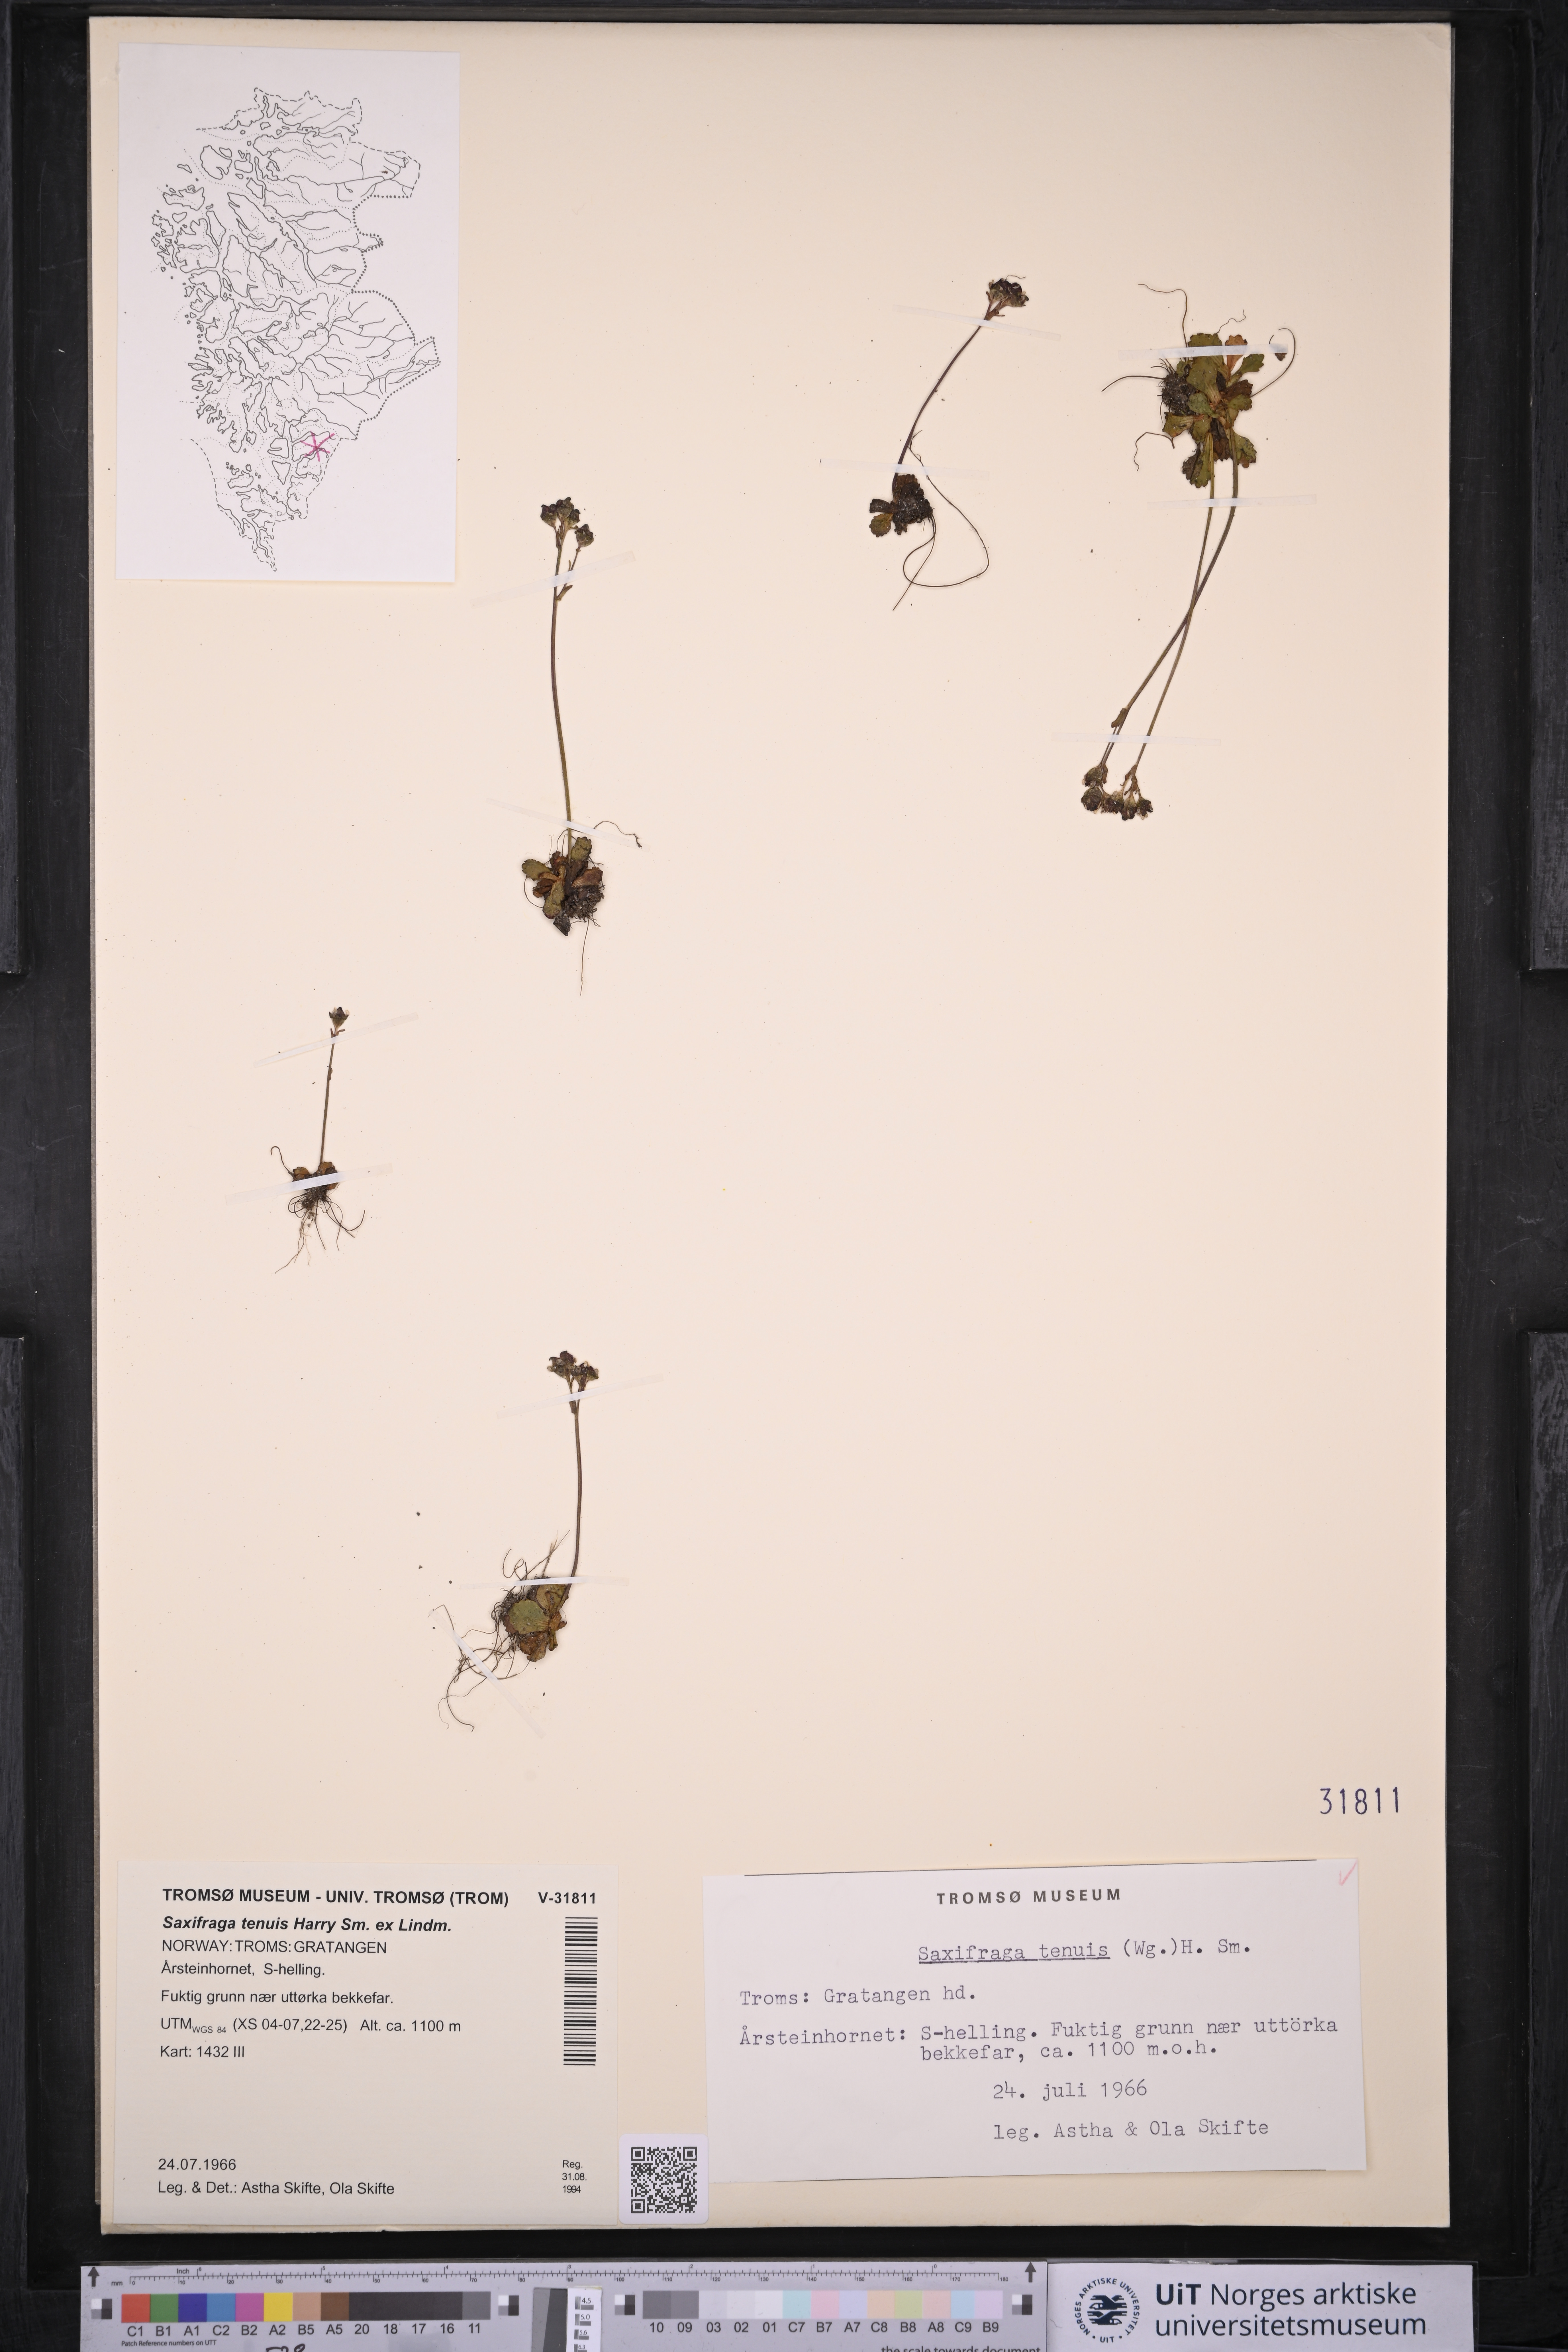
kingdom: Plantae
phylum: Tracheophyta
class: Magnoliopsida
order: Saxifragales
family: Saxifragaceae
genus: Micranthes
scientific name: Micranthes tenuis
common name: Ottertail pass saxifrage
